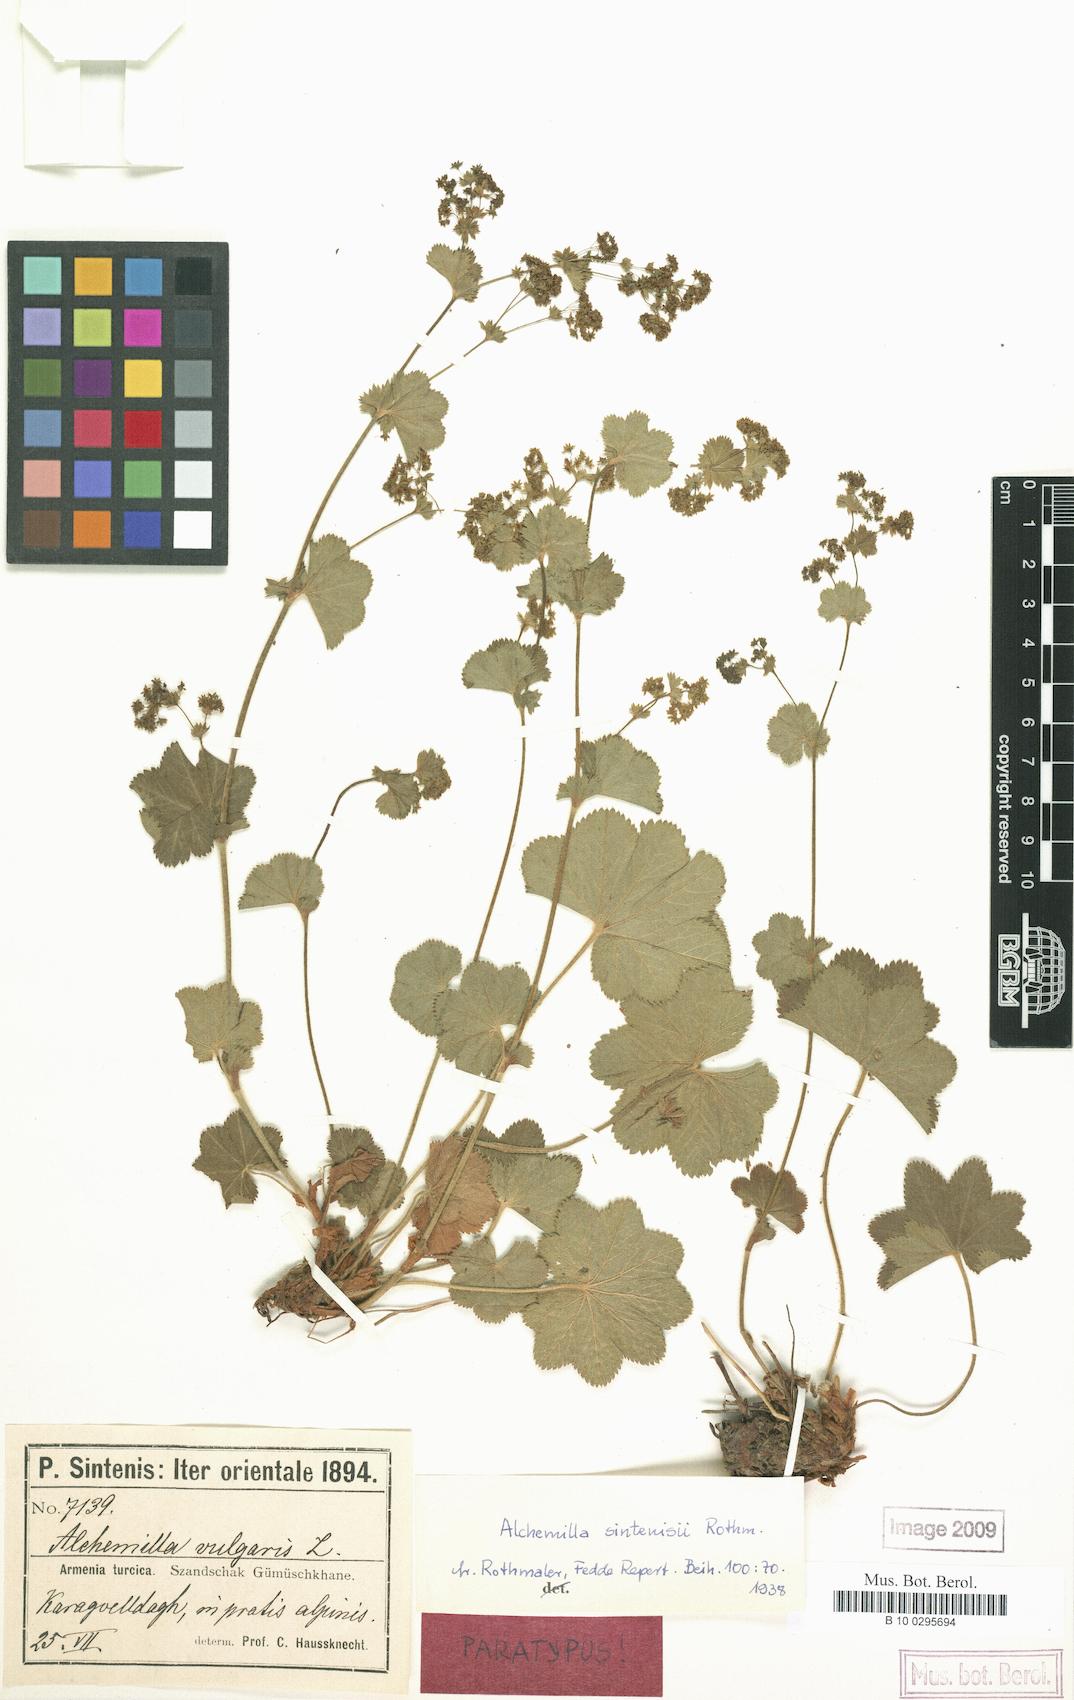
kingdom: Plantae
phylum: Tracheophyta
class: Magnoliopsida
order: Rosales
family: Rosaceae
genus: Alchemilla
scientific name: Alchemilla sintenisii
